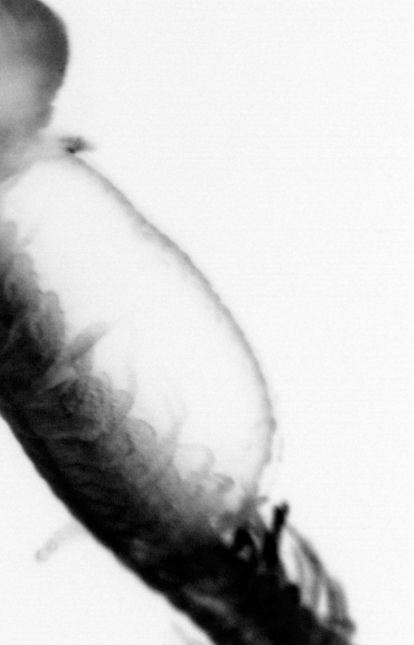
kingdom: Animalia
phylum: Annelida
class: Polychaeta
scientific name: Polychaeta
